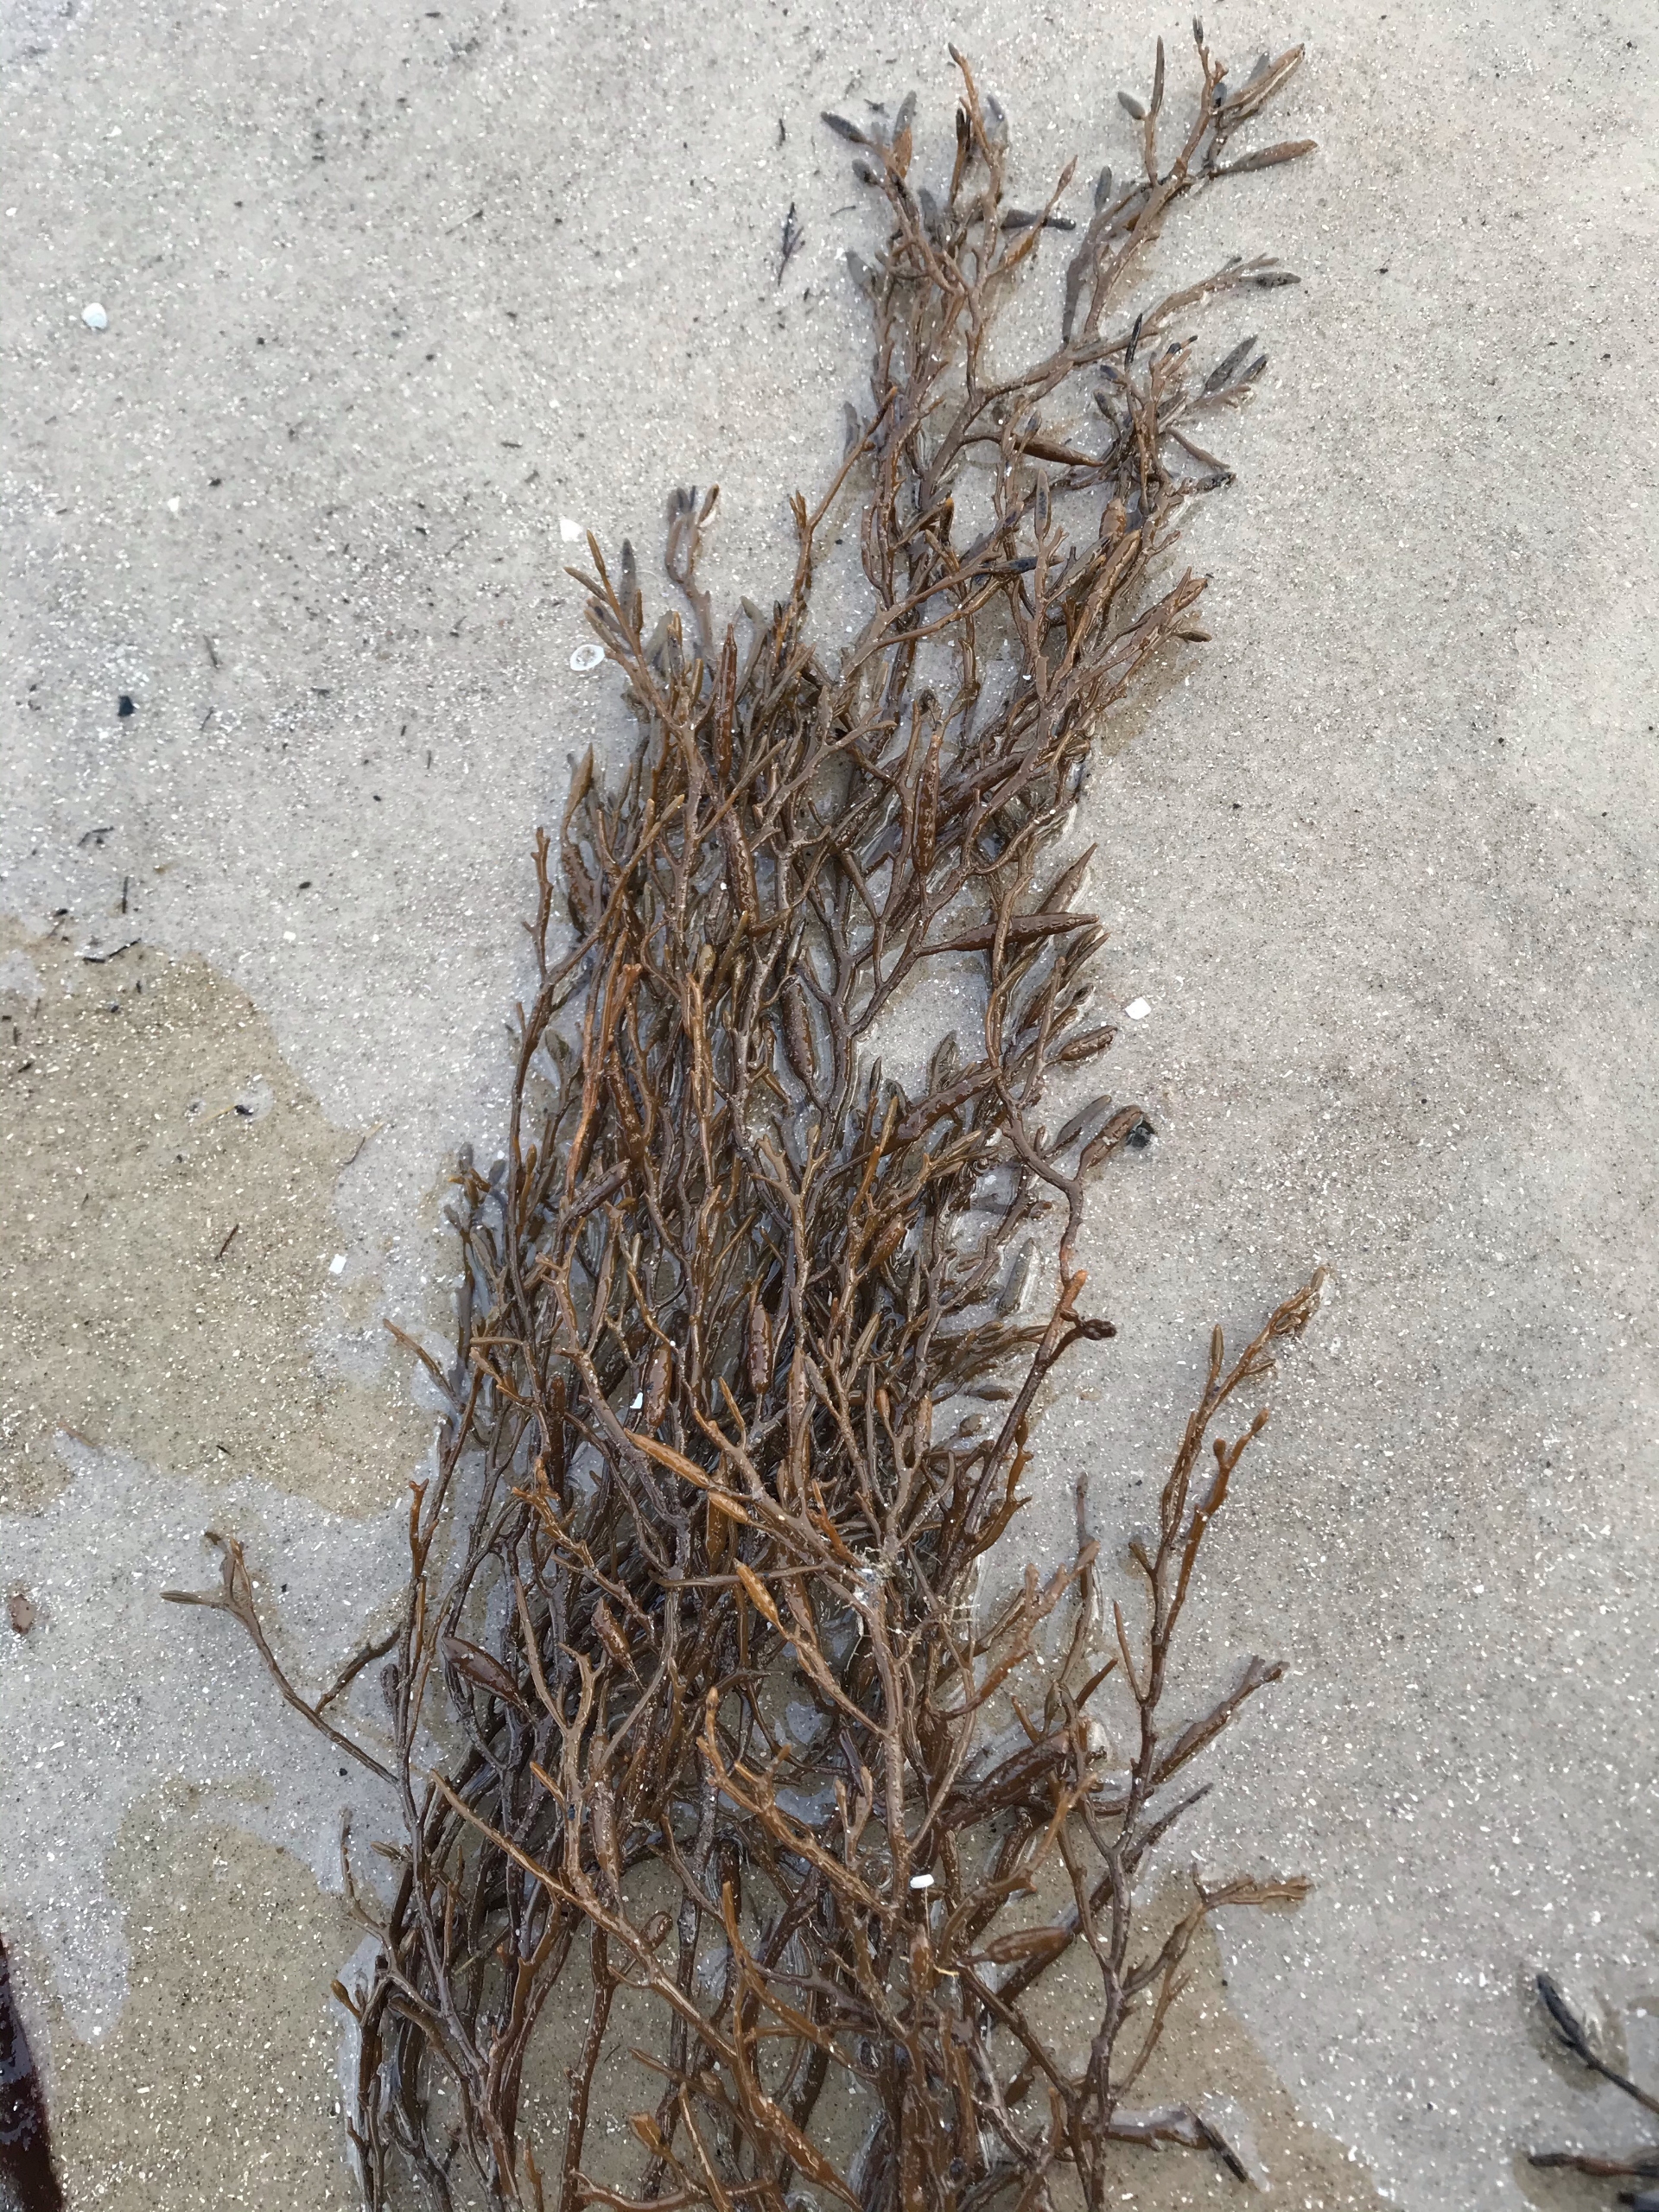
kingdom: Chromista
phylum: Ochrophyta
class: Phaeophyceae
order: Fucales
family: Sargassaceae
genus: Halidrys
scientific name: Halidrys siliquosa
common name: Skulpetang
